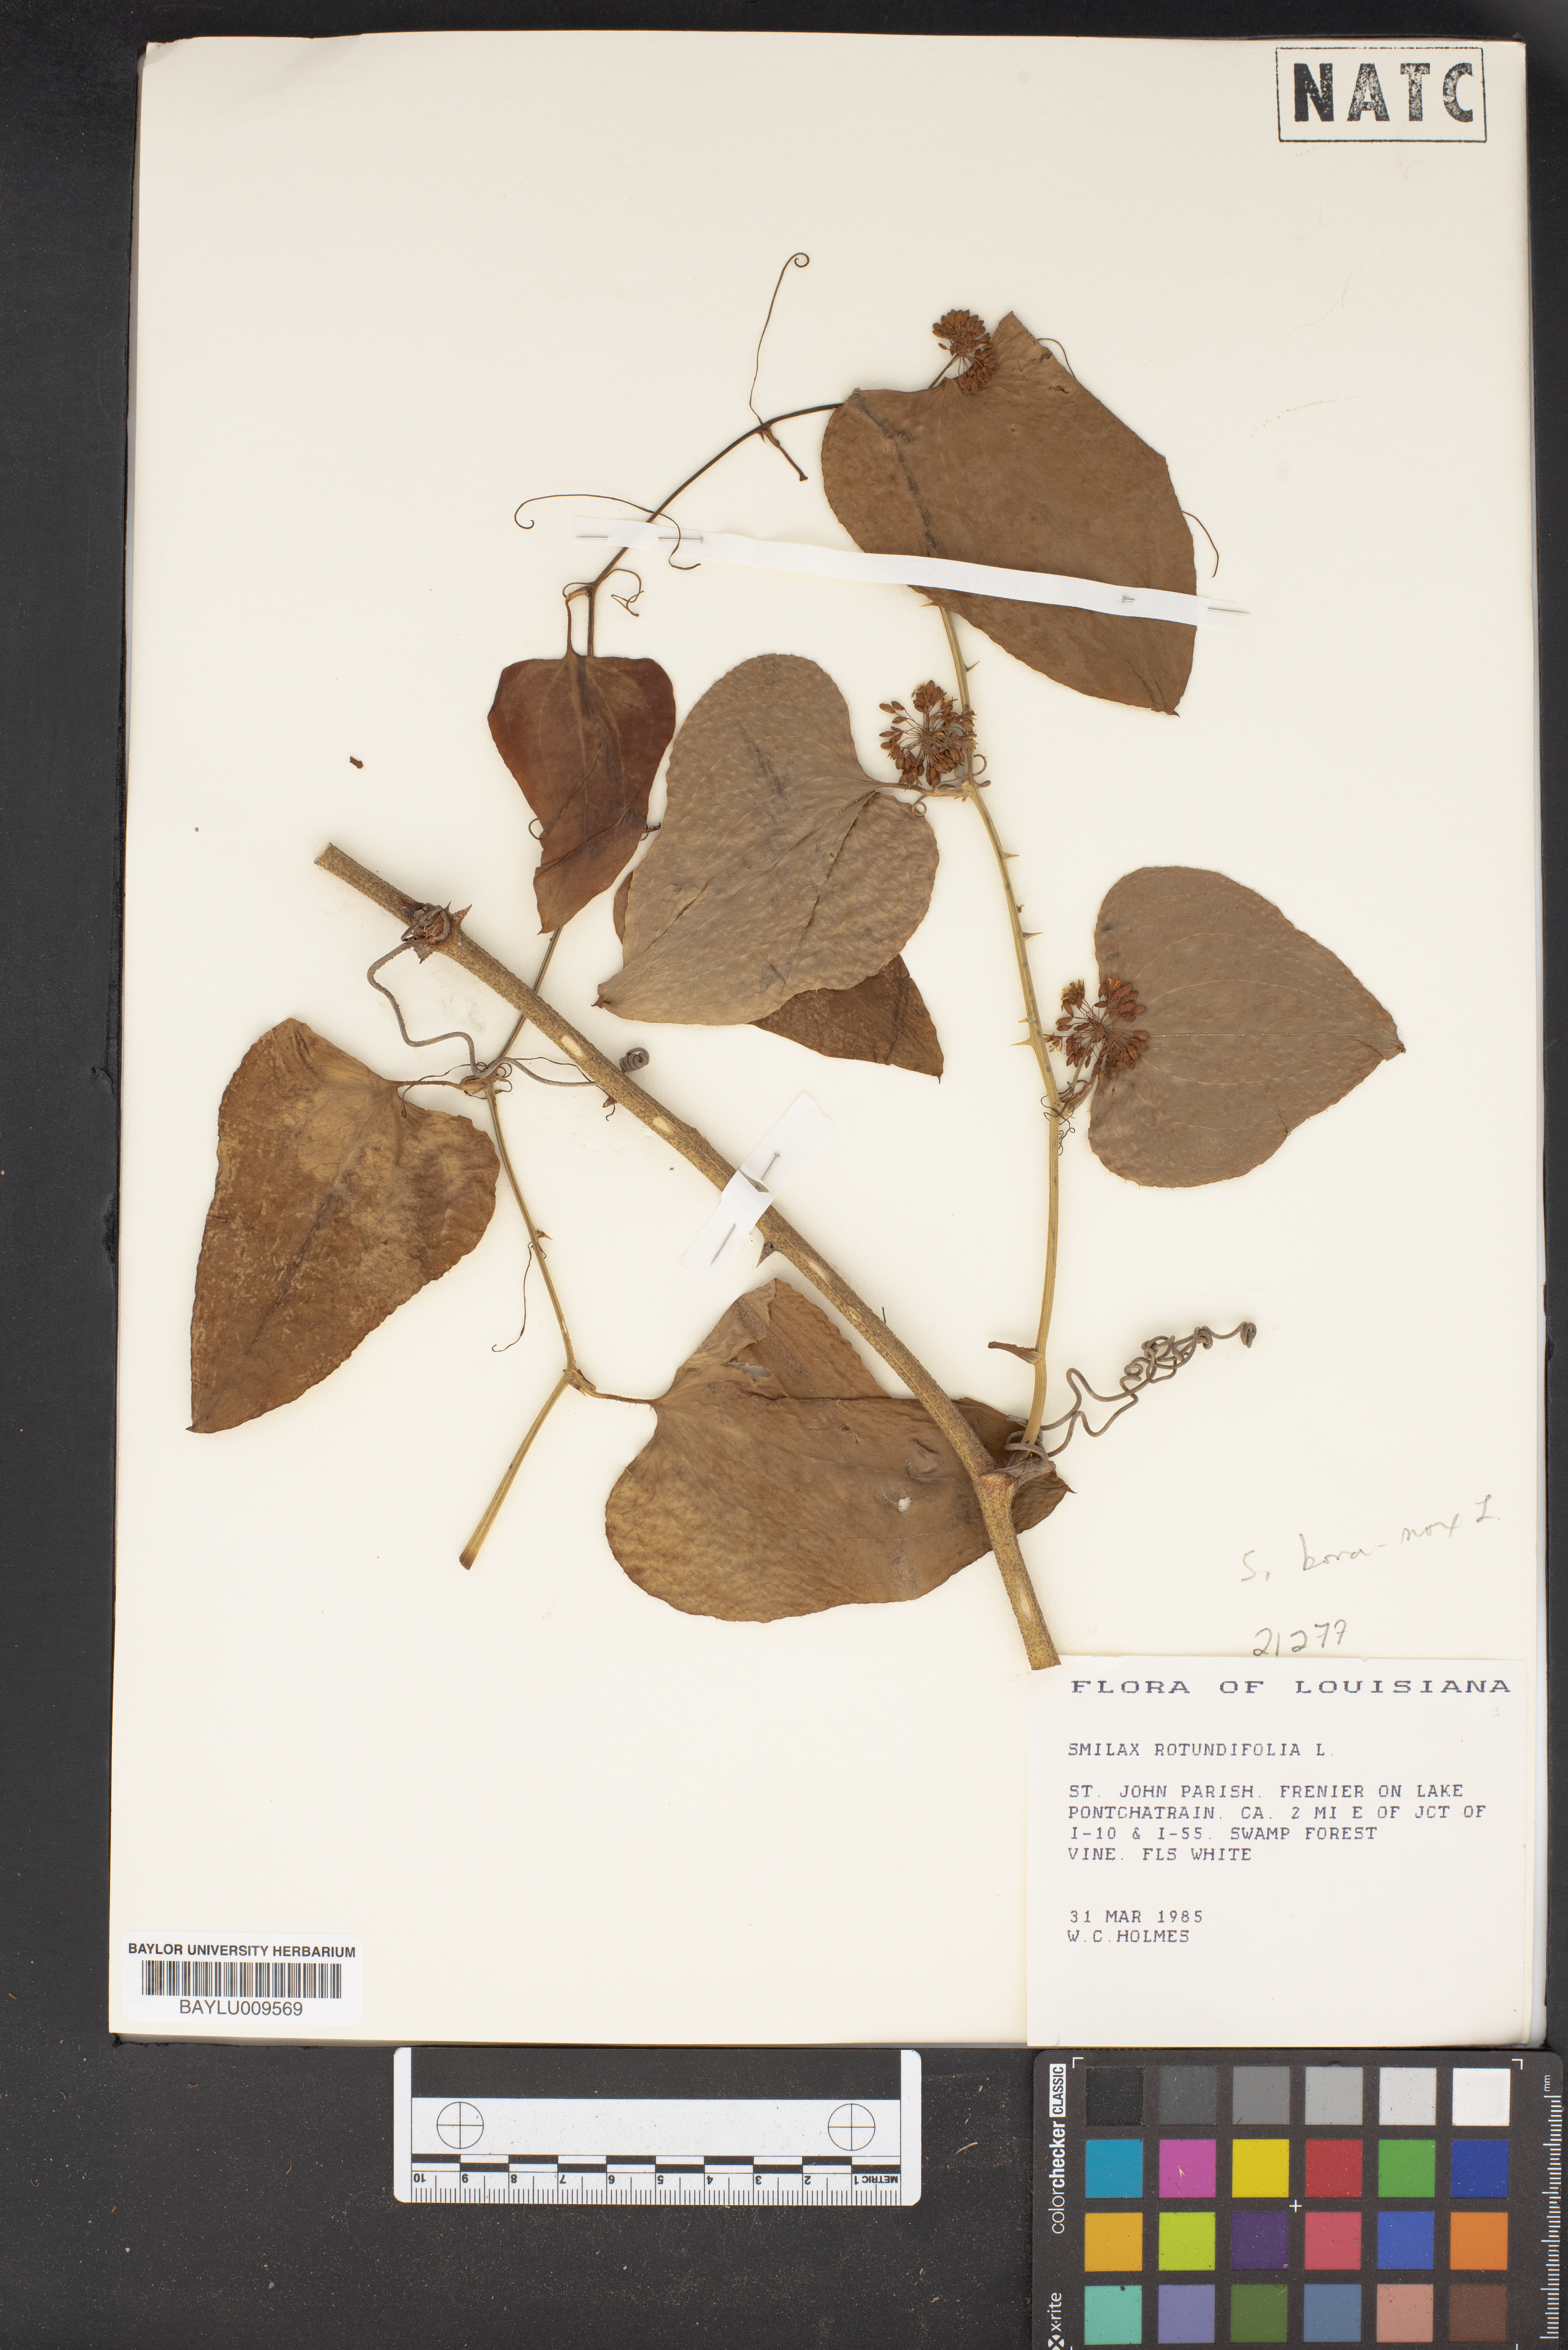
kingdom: Plantae
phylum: Tracheophyta
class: Liliopsida
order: Liliales
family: Smilacaceae
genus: Smilax
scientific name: Smilax rotundifolia
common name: Bullbriar
